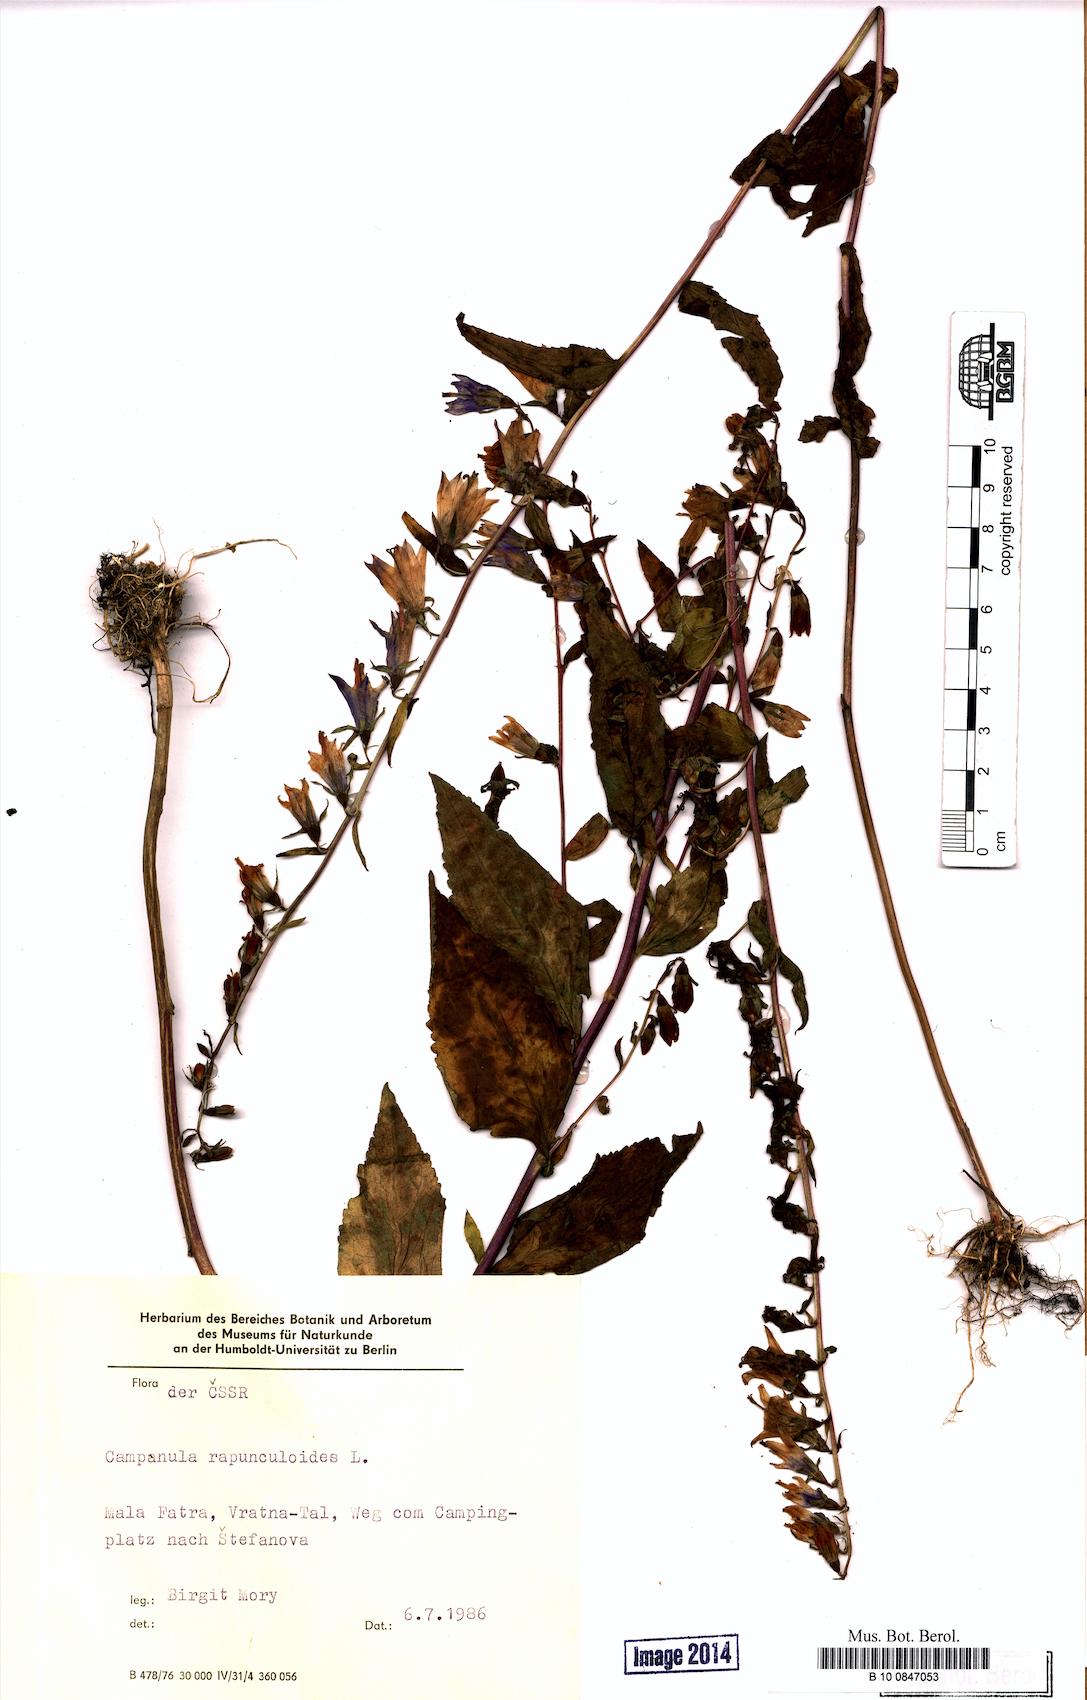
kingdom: Plantae
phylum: Tracheophyta
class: Magnoliopsida
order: Asterales
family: Campanulaceae
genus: Campanula
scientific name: Campanula rapunculoides
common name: Creeping bellflower
